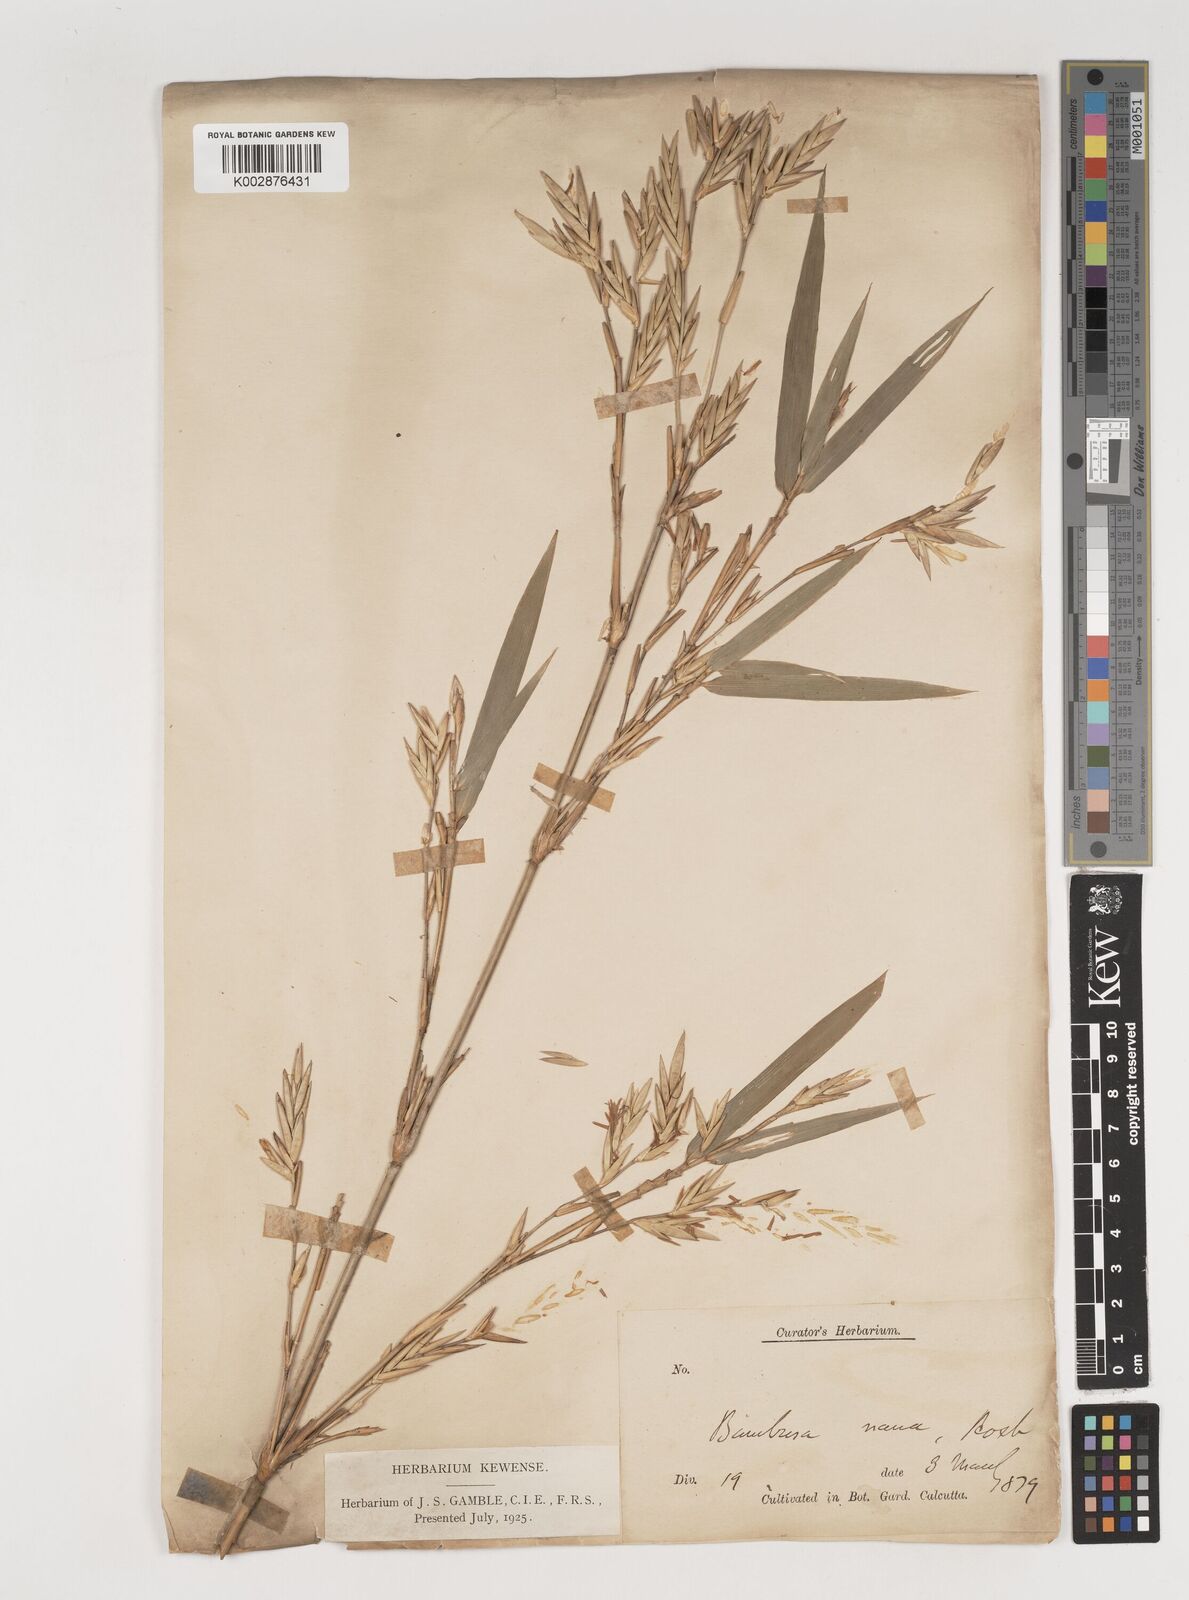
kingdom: Plantae
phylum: Tracheophyta
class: Liliopsida
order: Poales
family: Poaceae
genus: Bambusa
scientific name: Bambusa multiplex
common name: Hedge bamboo
